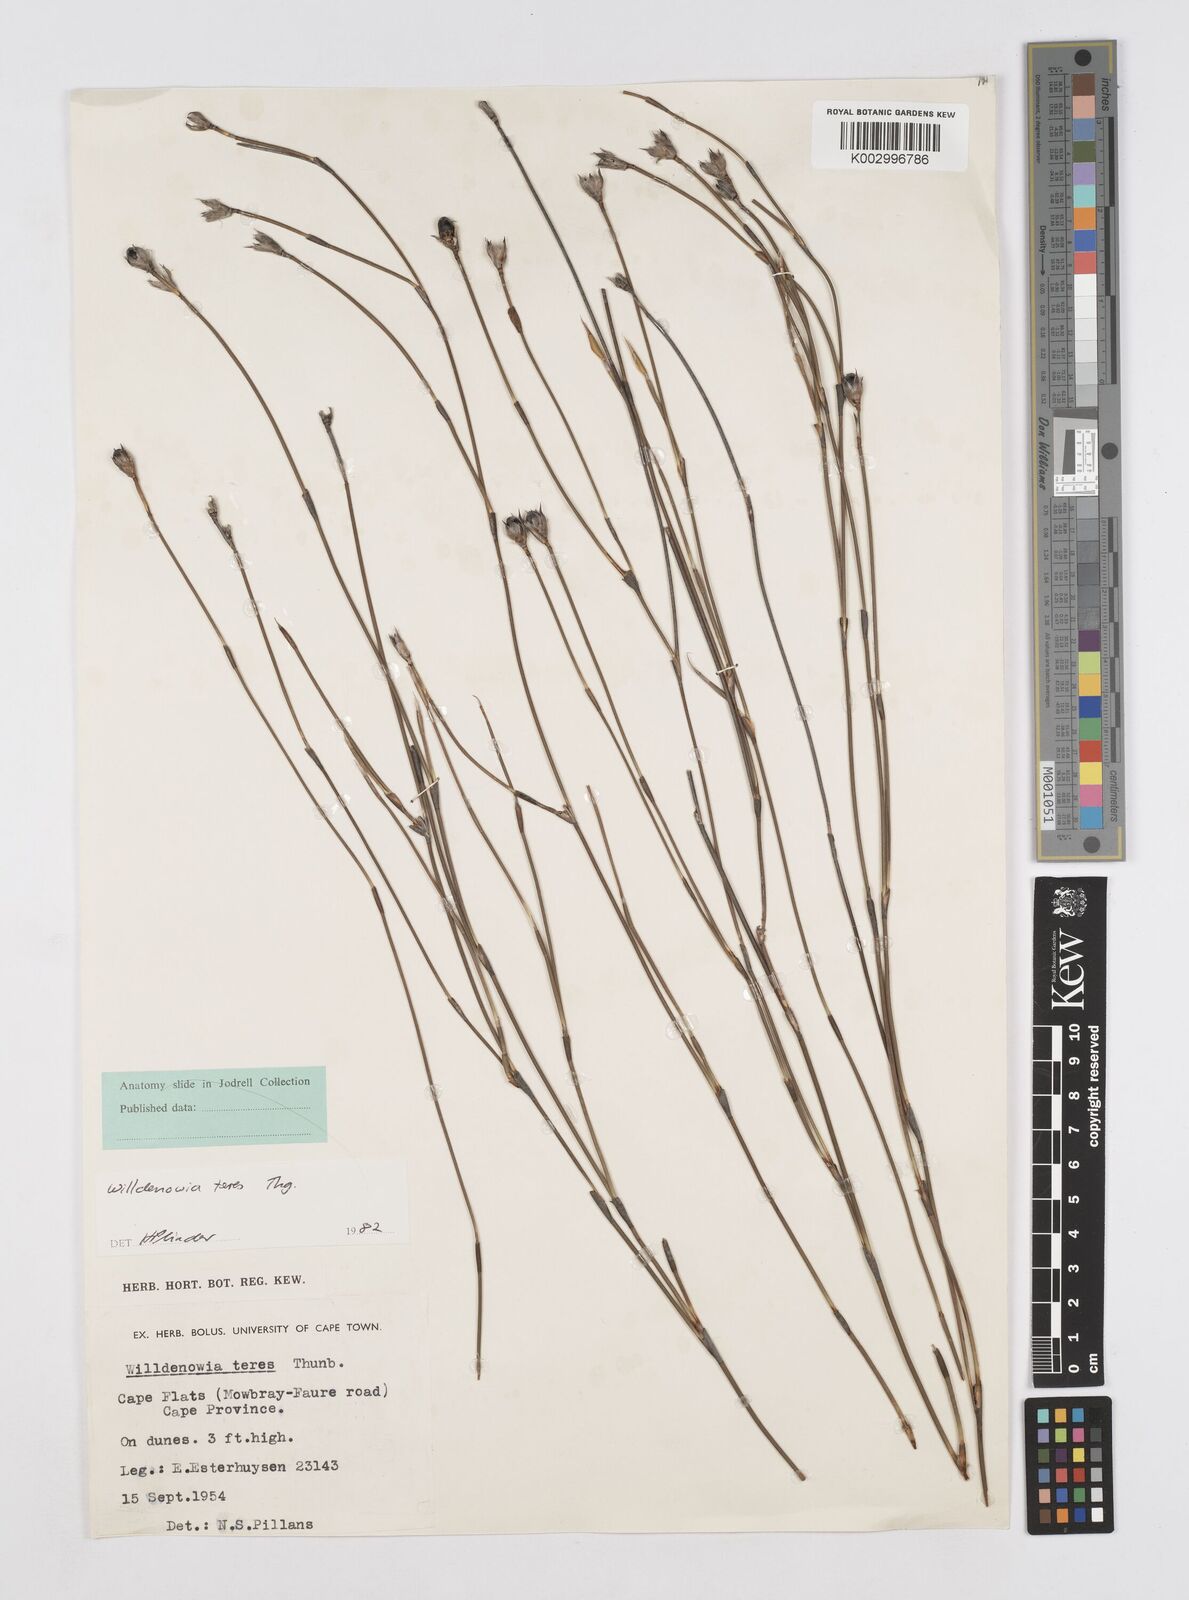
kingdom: Plantae
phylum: Tracheophyta
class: Liliopsida
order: Poales
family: Restionaceae
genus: Willdenowia
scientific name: Willdenowia teres
